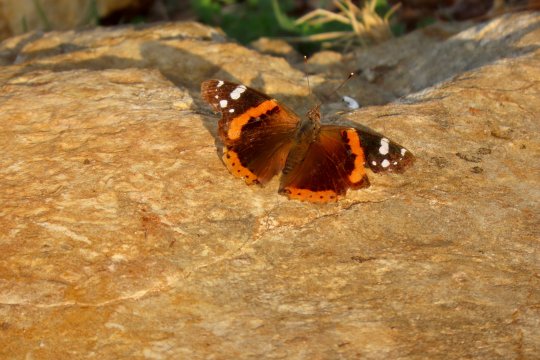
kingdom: Animalia
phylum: Arthropoda
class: Insecta
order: Lepidoptera
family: Nymphalidae
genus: Vanessa
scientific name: Vanessa atalanta
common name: Red Admiral
